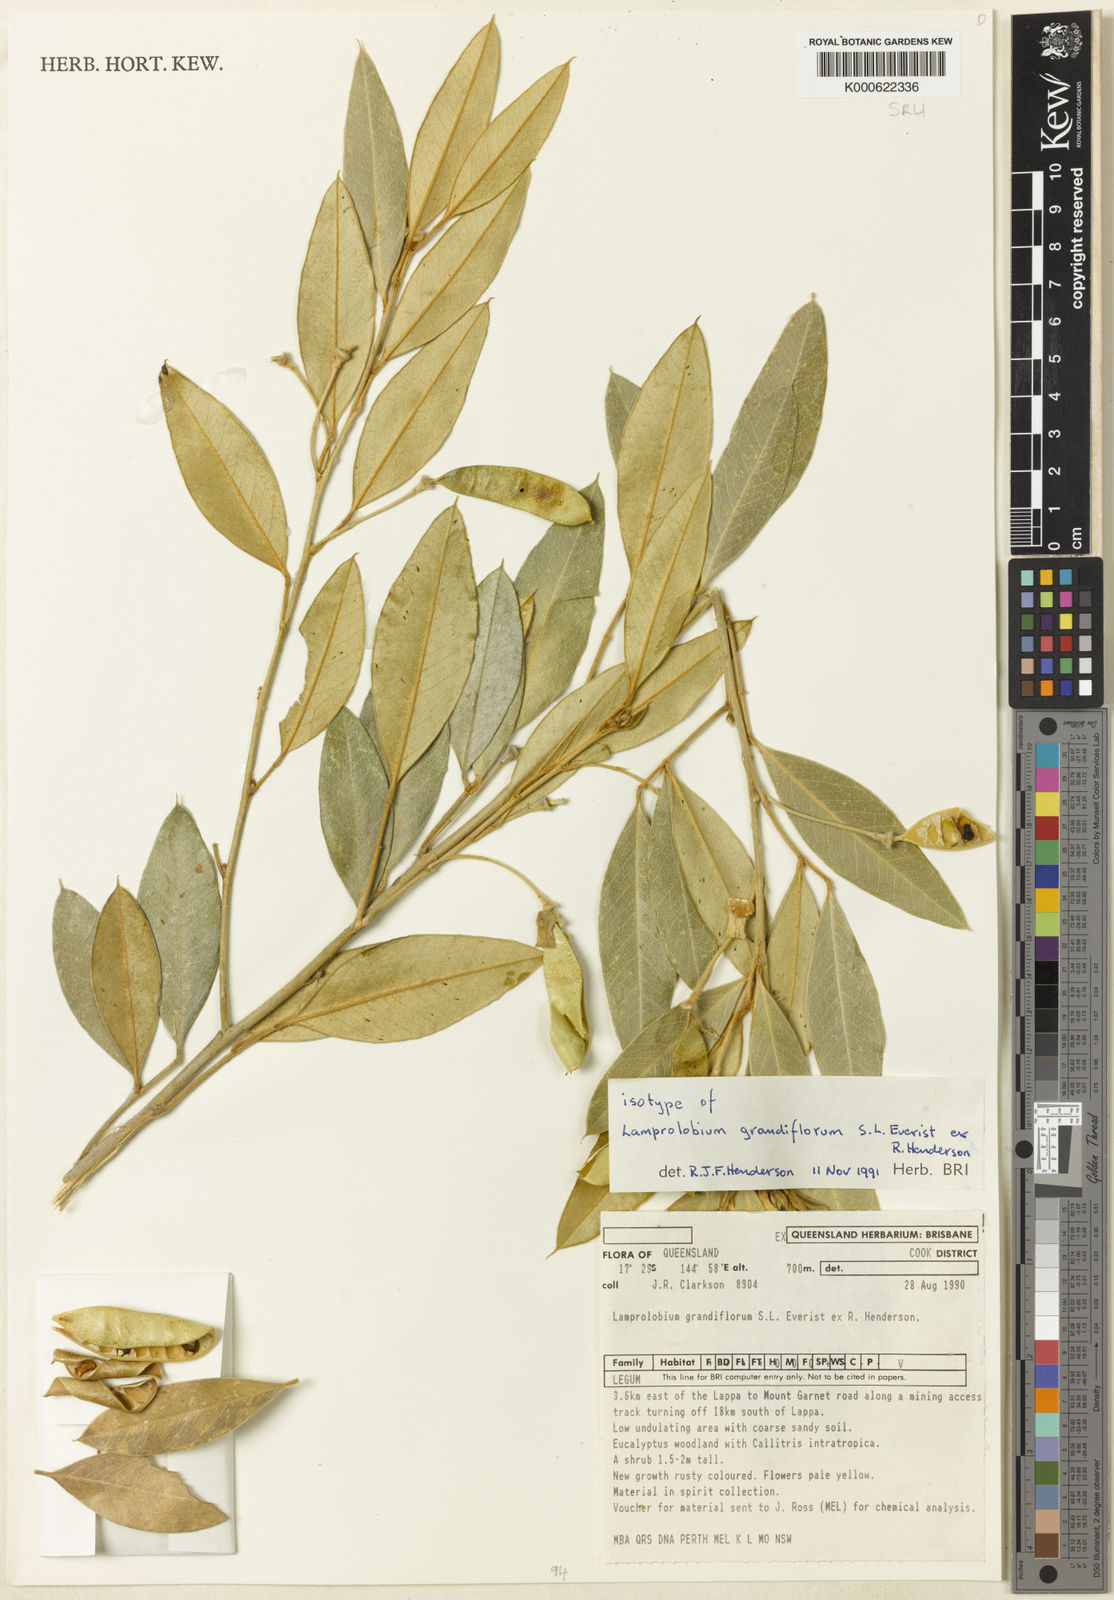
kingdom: Plantae
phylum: Tracheophyta
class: Magnoliopsida
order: Fabales
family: Fabaceae
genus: Lamprolobium
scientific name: Lamprolobium grandiflorum
